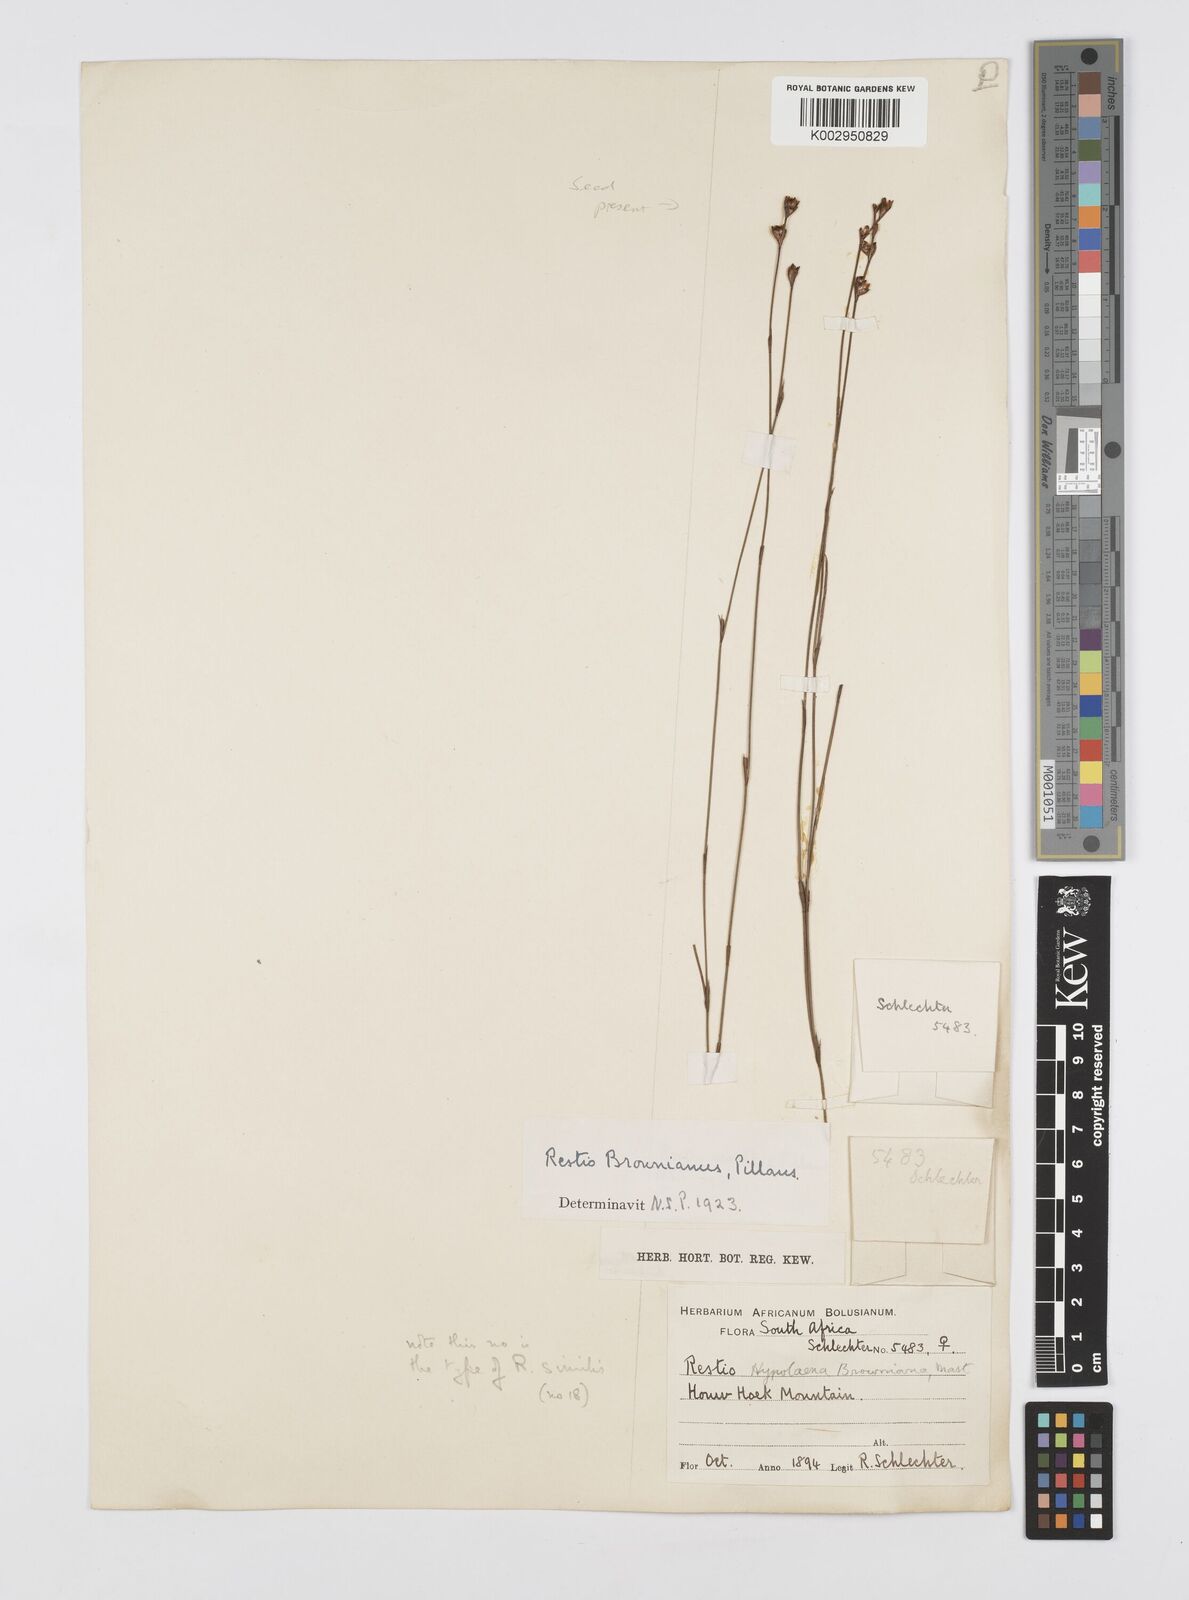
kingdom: Plantae
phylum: Tracheophyta
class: Liliopsida
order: Poales
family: Restionaceae
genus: Restio
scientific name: Restio debilis
